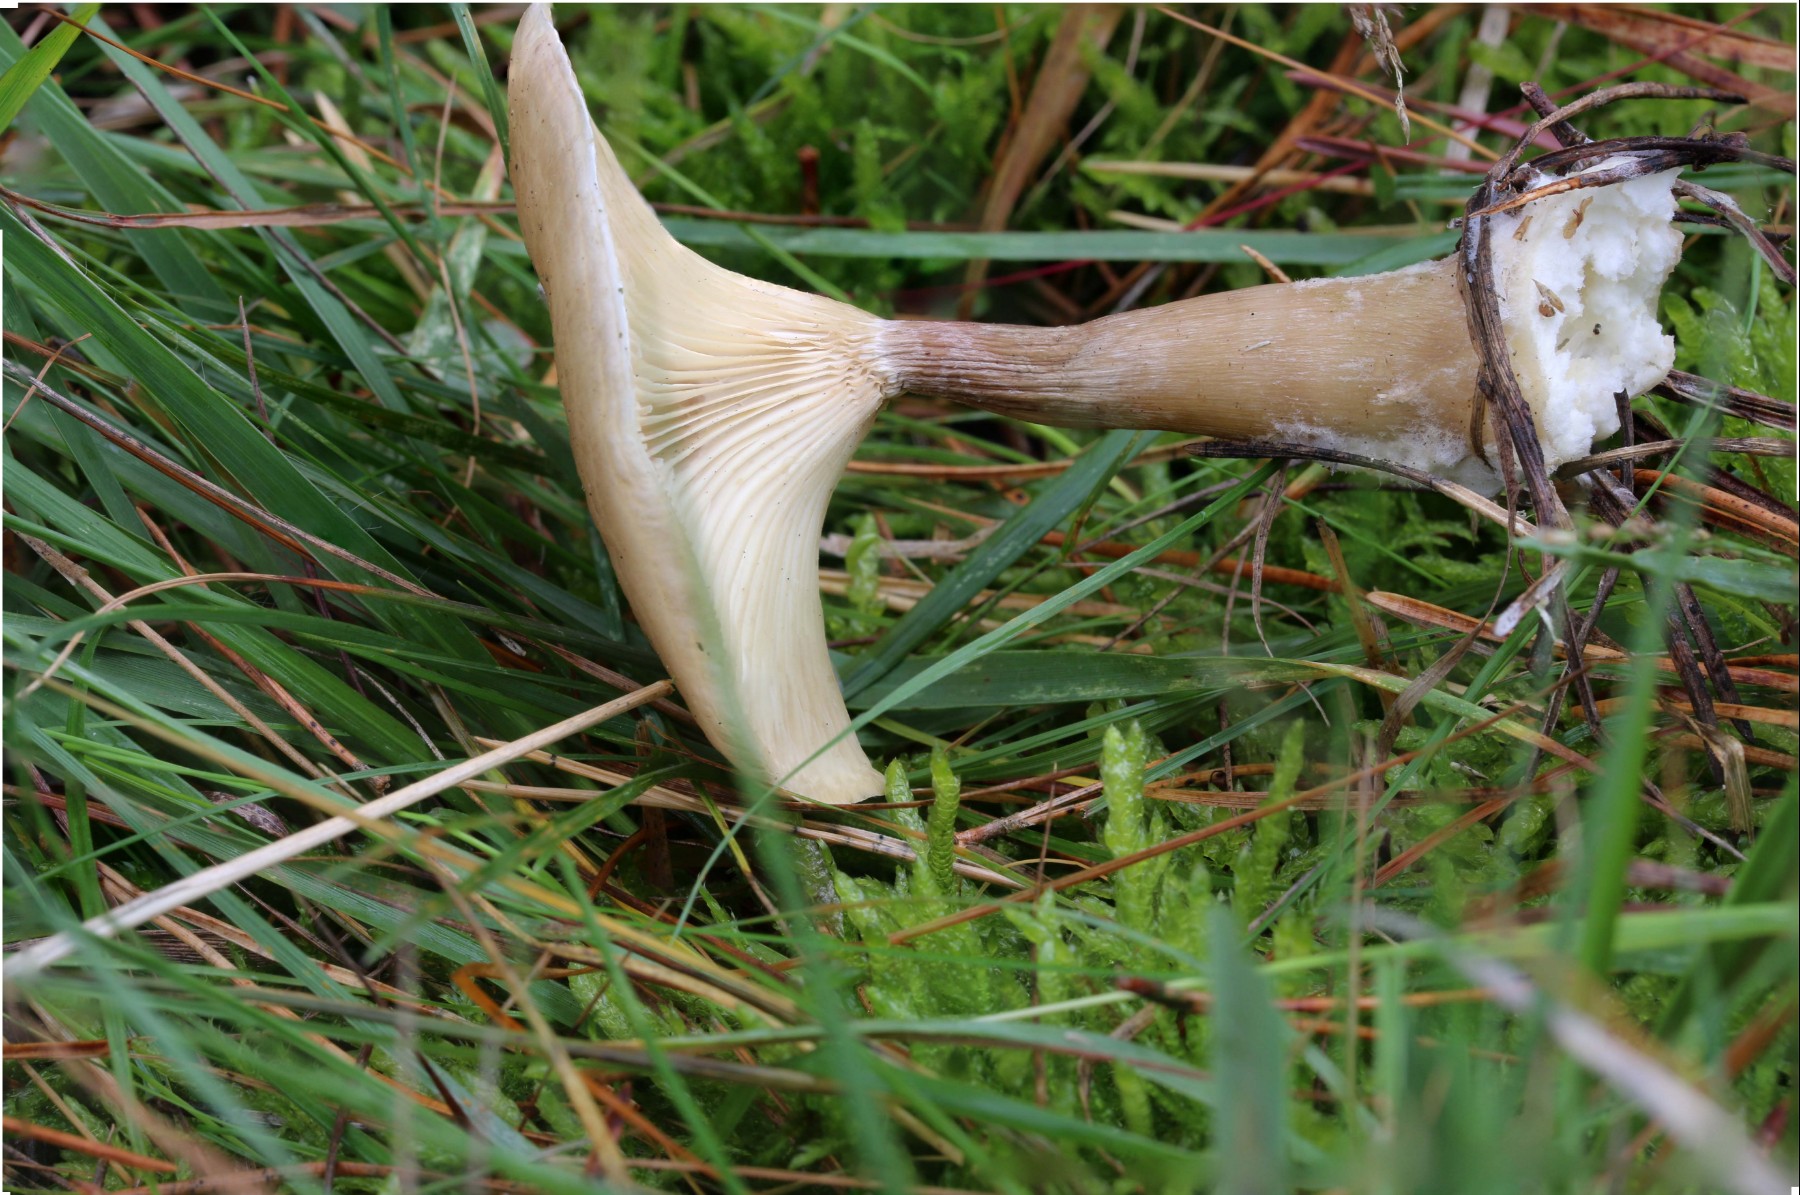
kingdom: Fungi
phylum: Basidiomycota
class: Agaricomycetes
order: Agaricales
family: Hygrophoraceae
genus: Ampulloclitocybe
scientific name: Ampulloclitocybe clavipes
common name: køllefod
